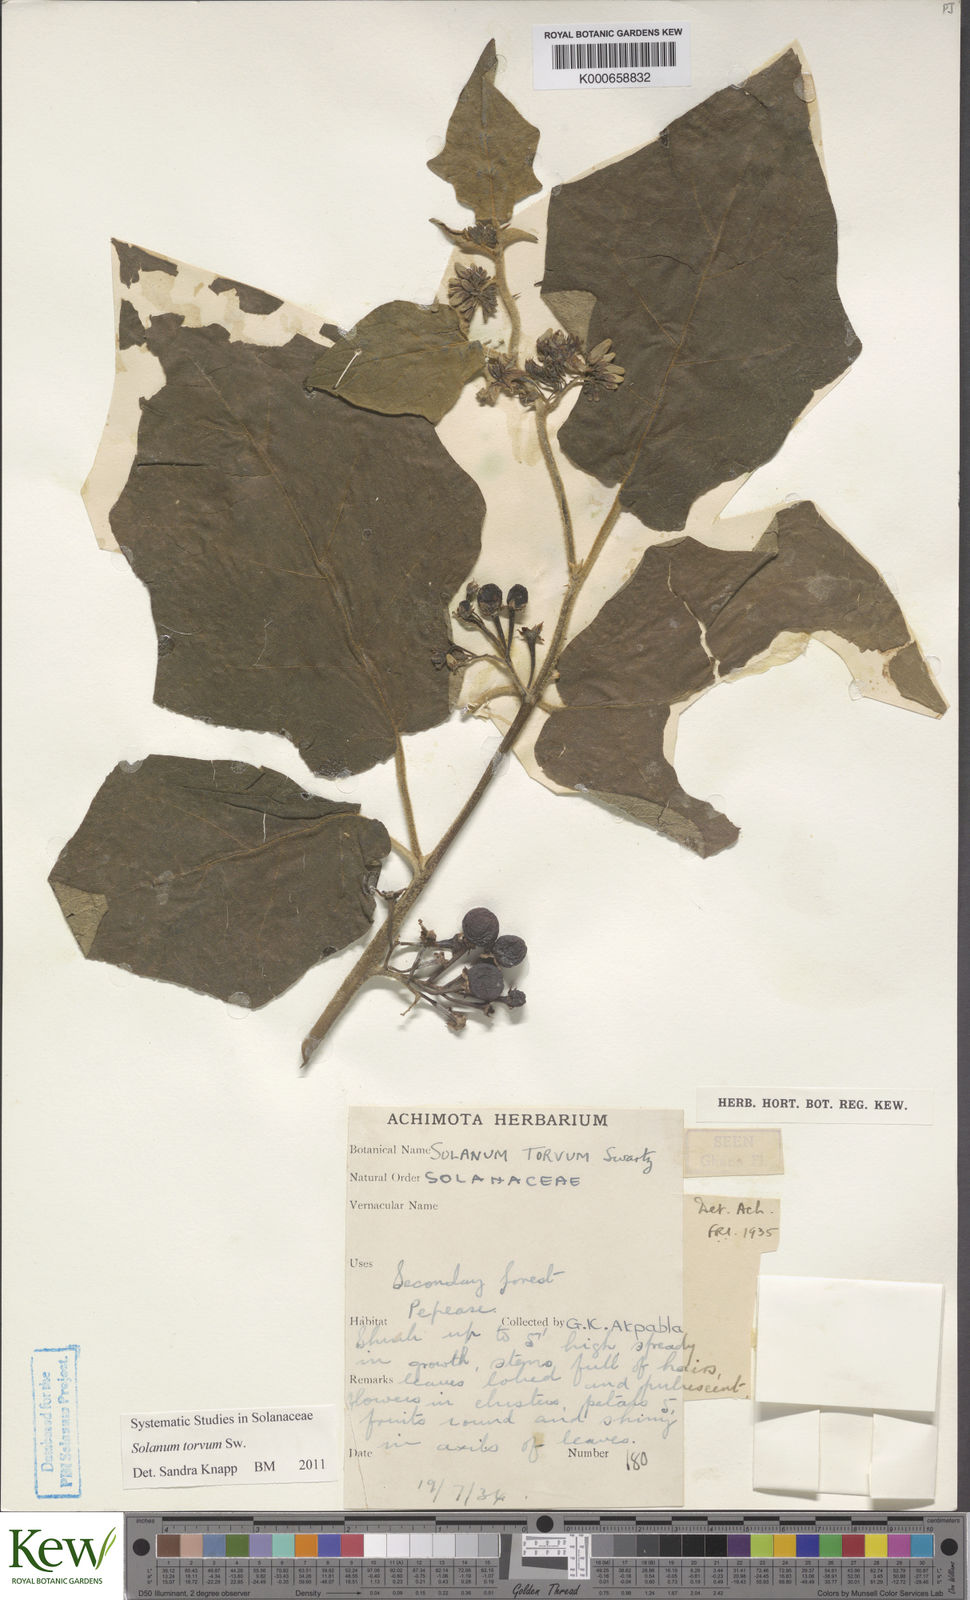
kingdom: Plantae
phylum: Tracheophyta
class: Magnoliopsida
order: Solanales
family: Solanaceae
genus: Solanum
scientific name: Solanum torvum
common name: Turkey berry
